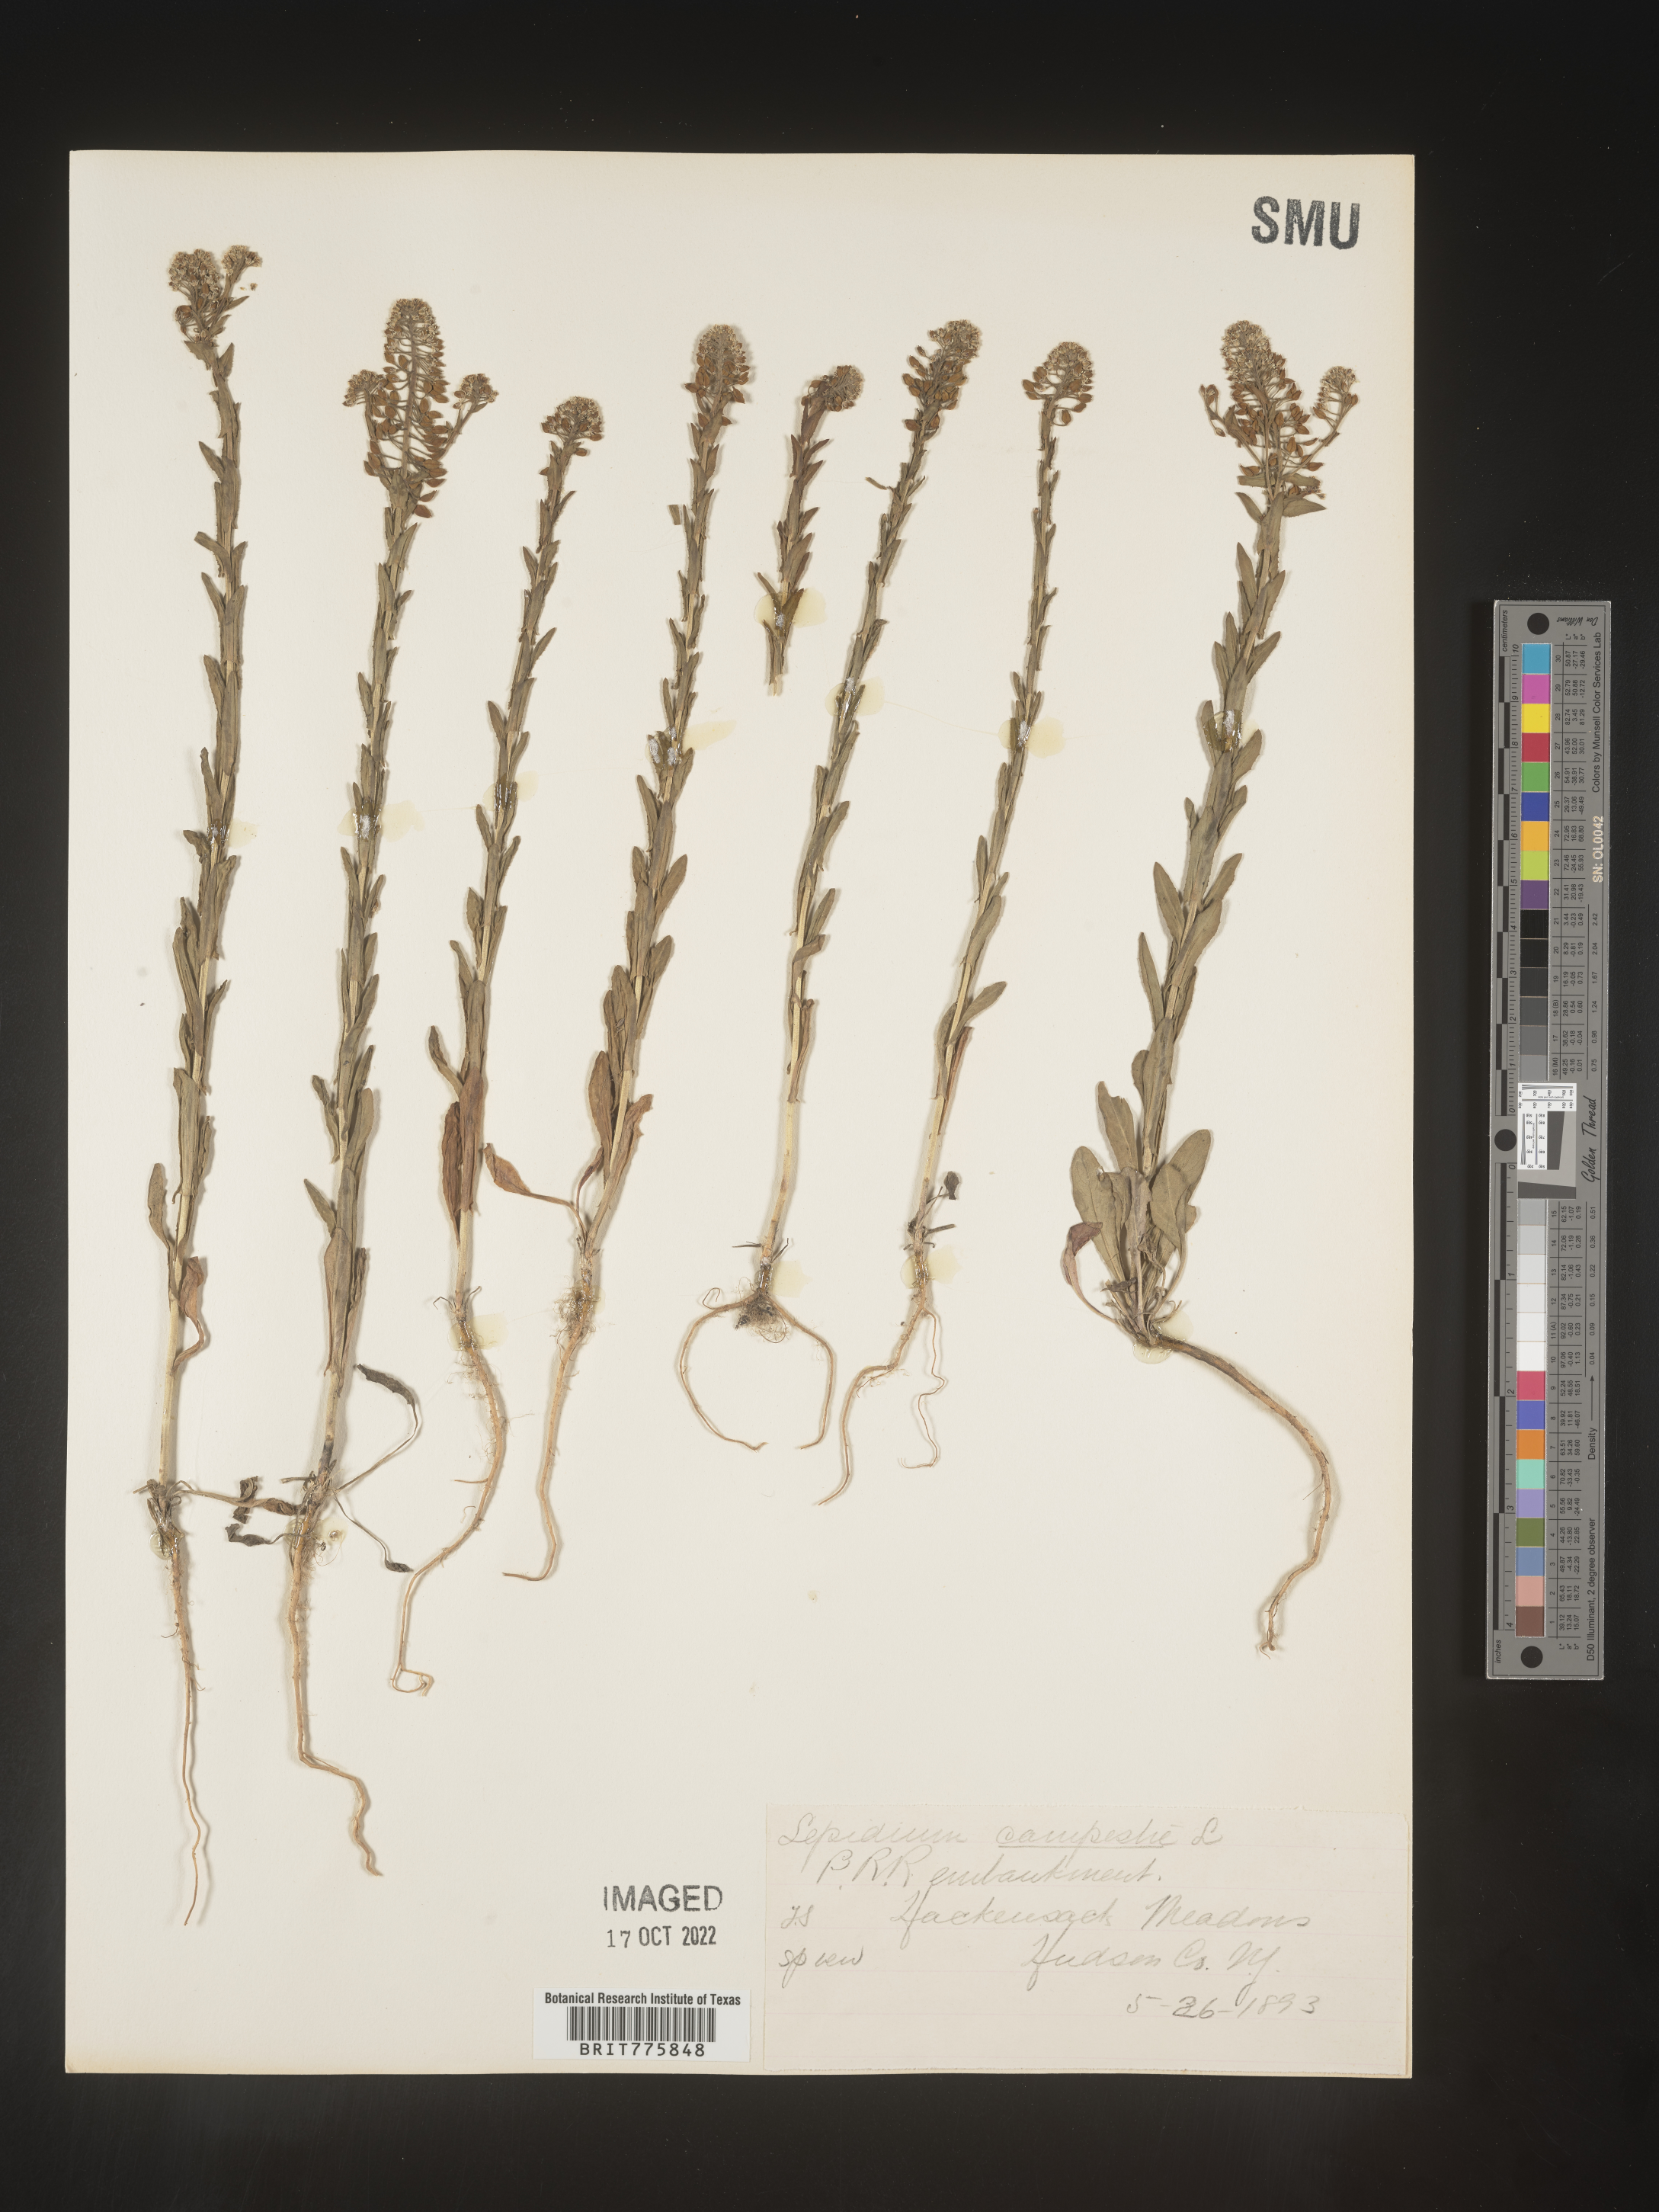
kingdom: Plantae
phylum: Tracheophyta
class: Magnoliopsida
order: Brassicales
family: Brassicaceae
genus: Lepidium
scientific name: Lepidium campestre
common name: Field pepperwort
